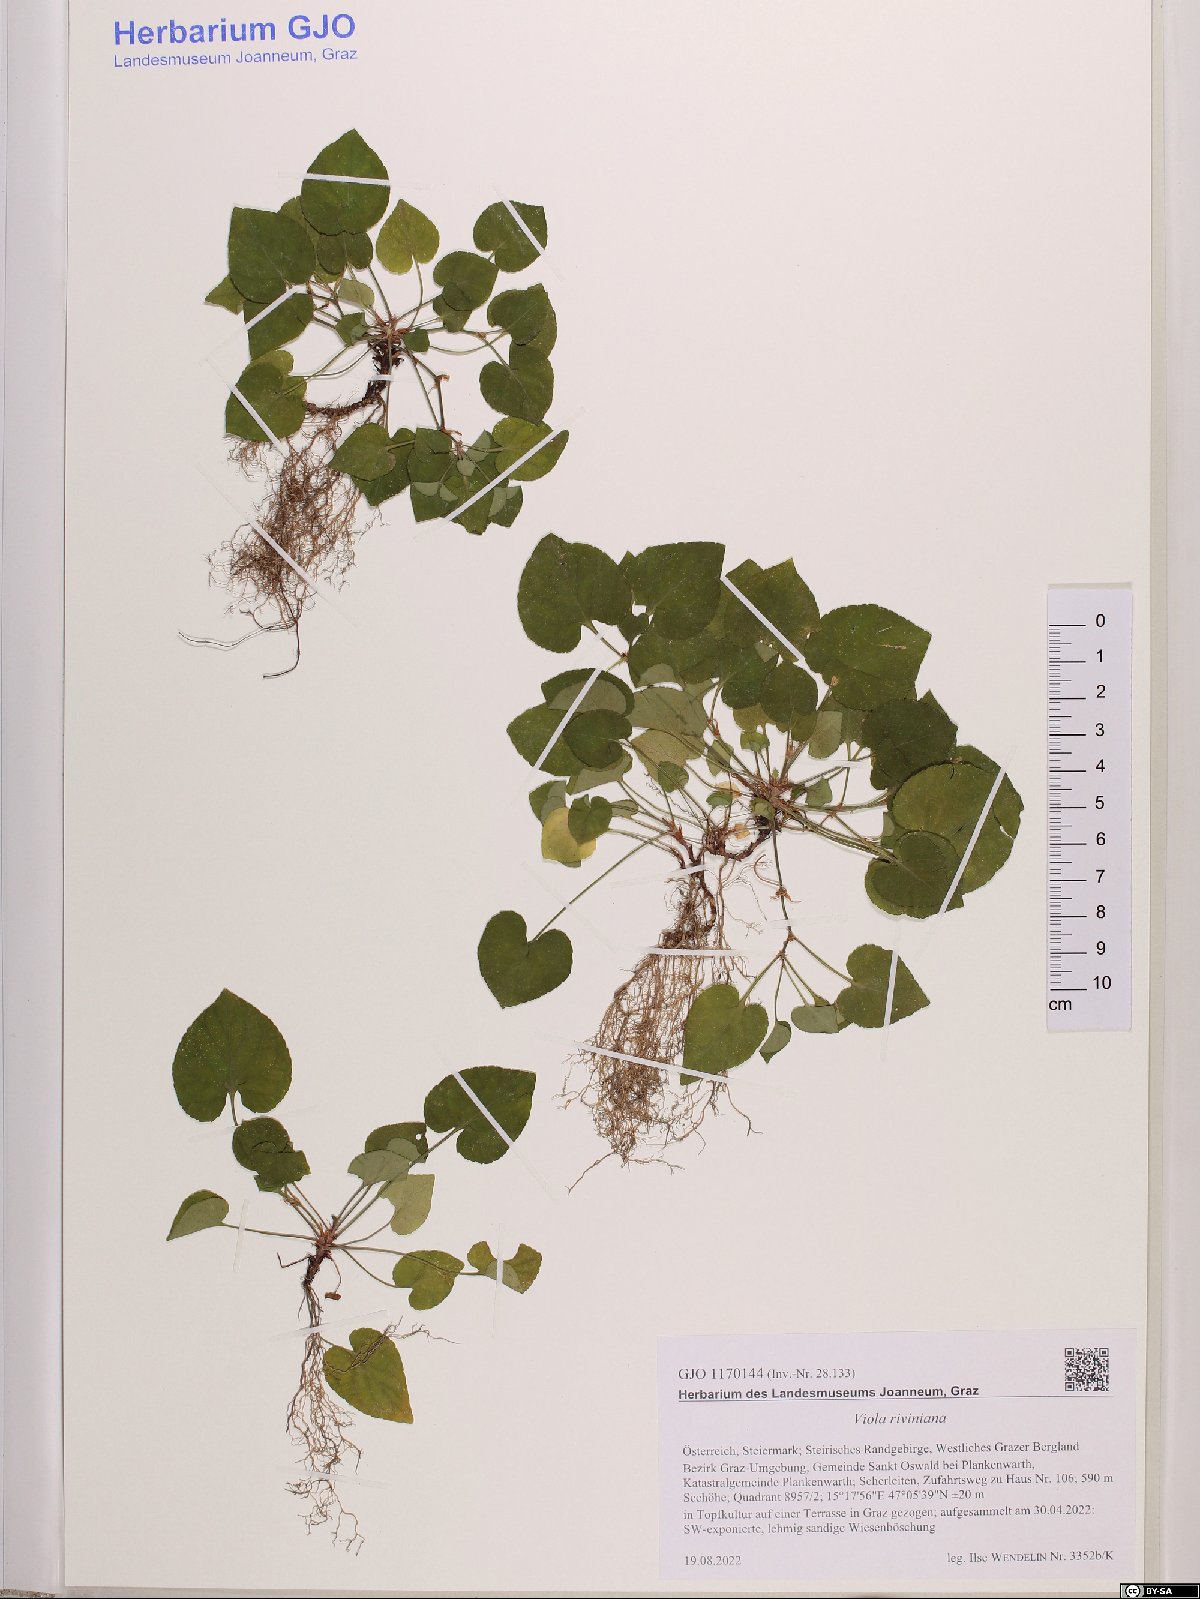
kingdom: Plantae
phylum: Tracheophyta
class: Magnoliopsida
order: Malpighiales
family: Violaceae
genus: Viola
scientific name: Viola riviniana
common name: Common dog-violet
